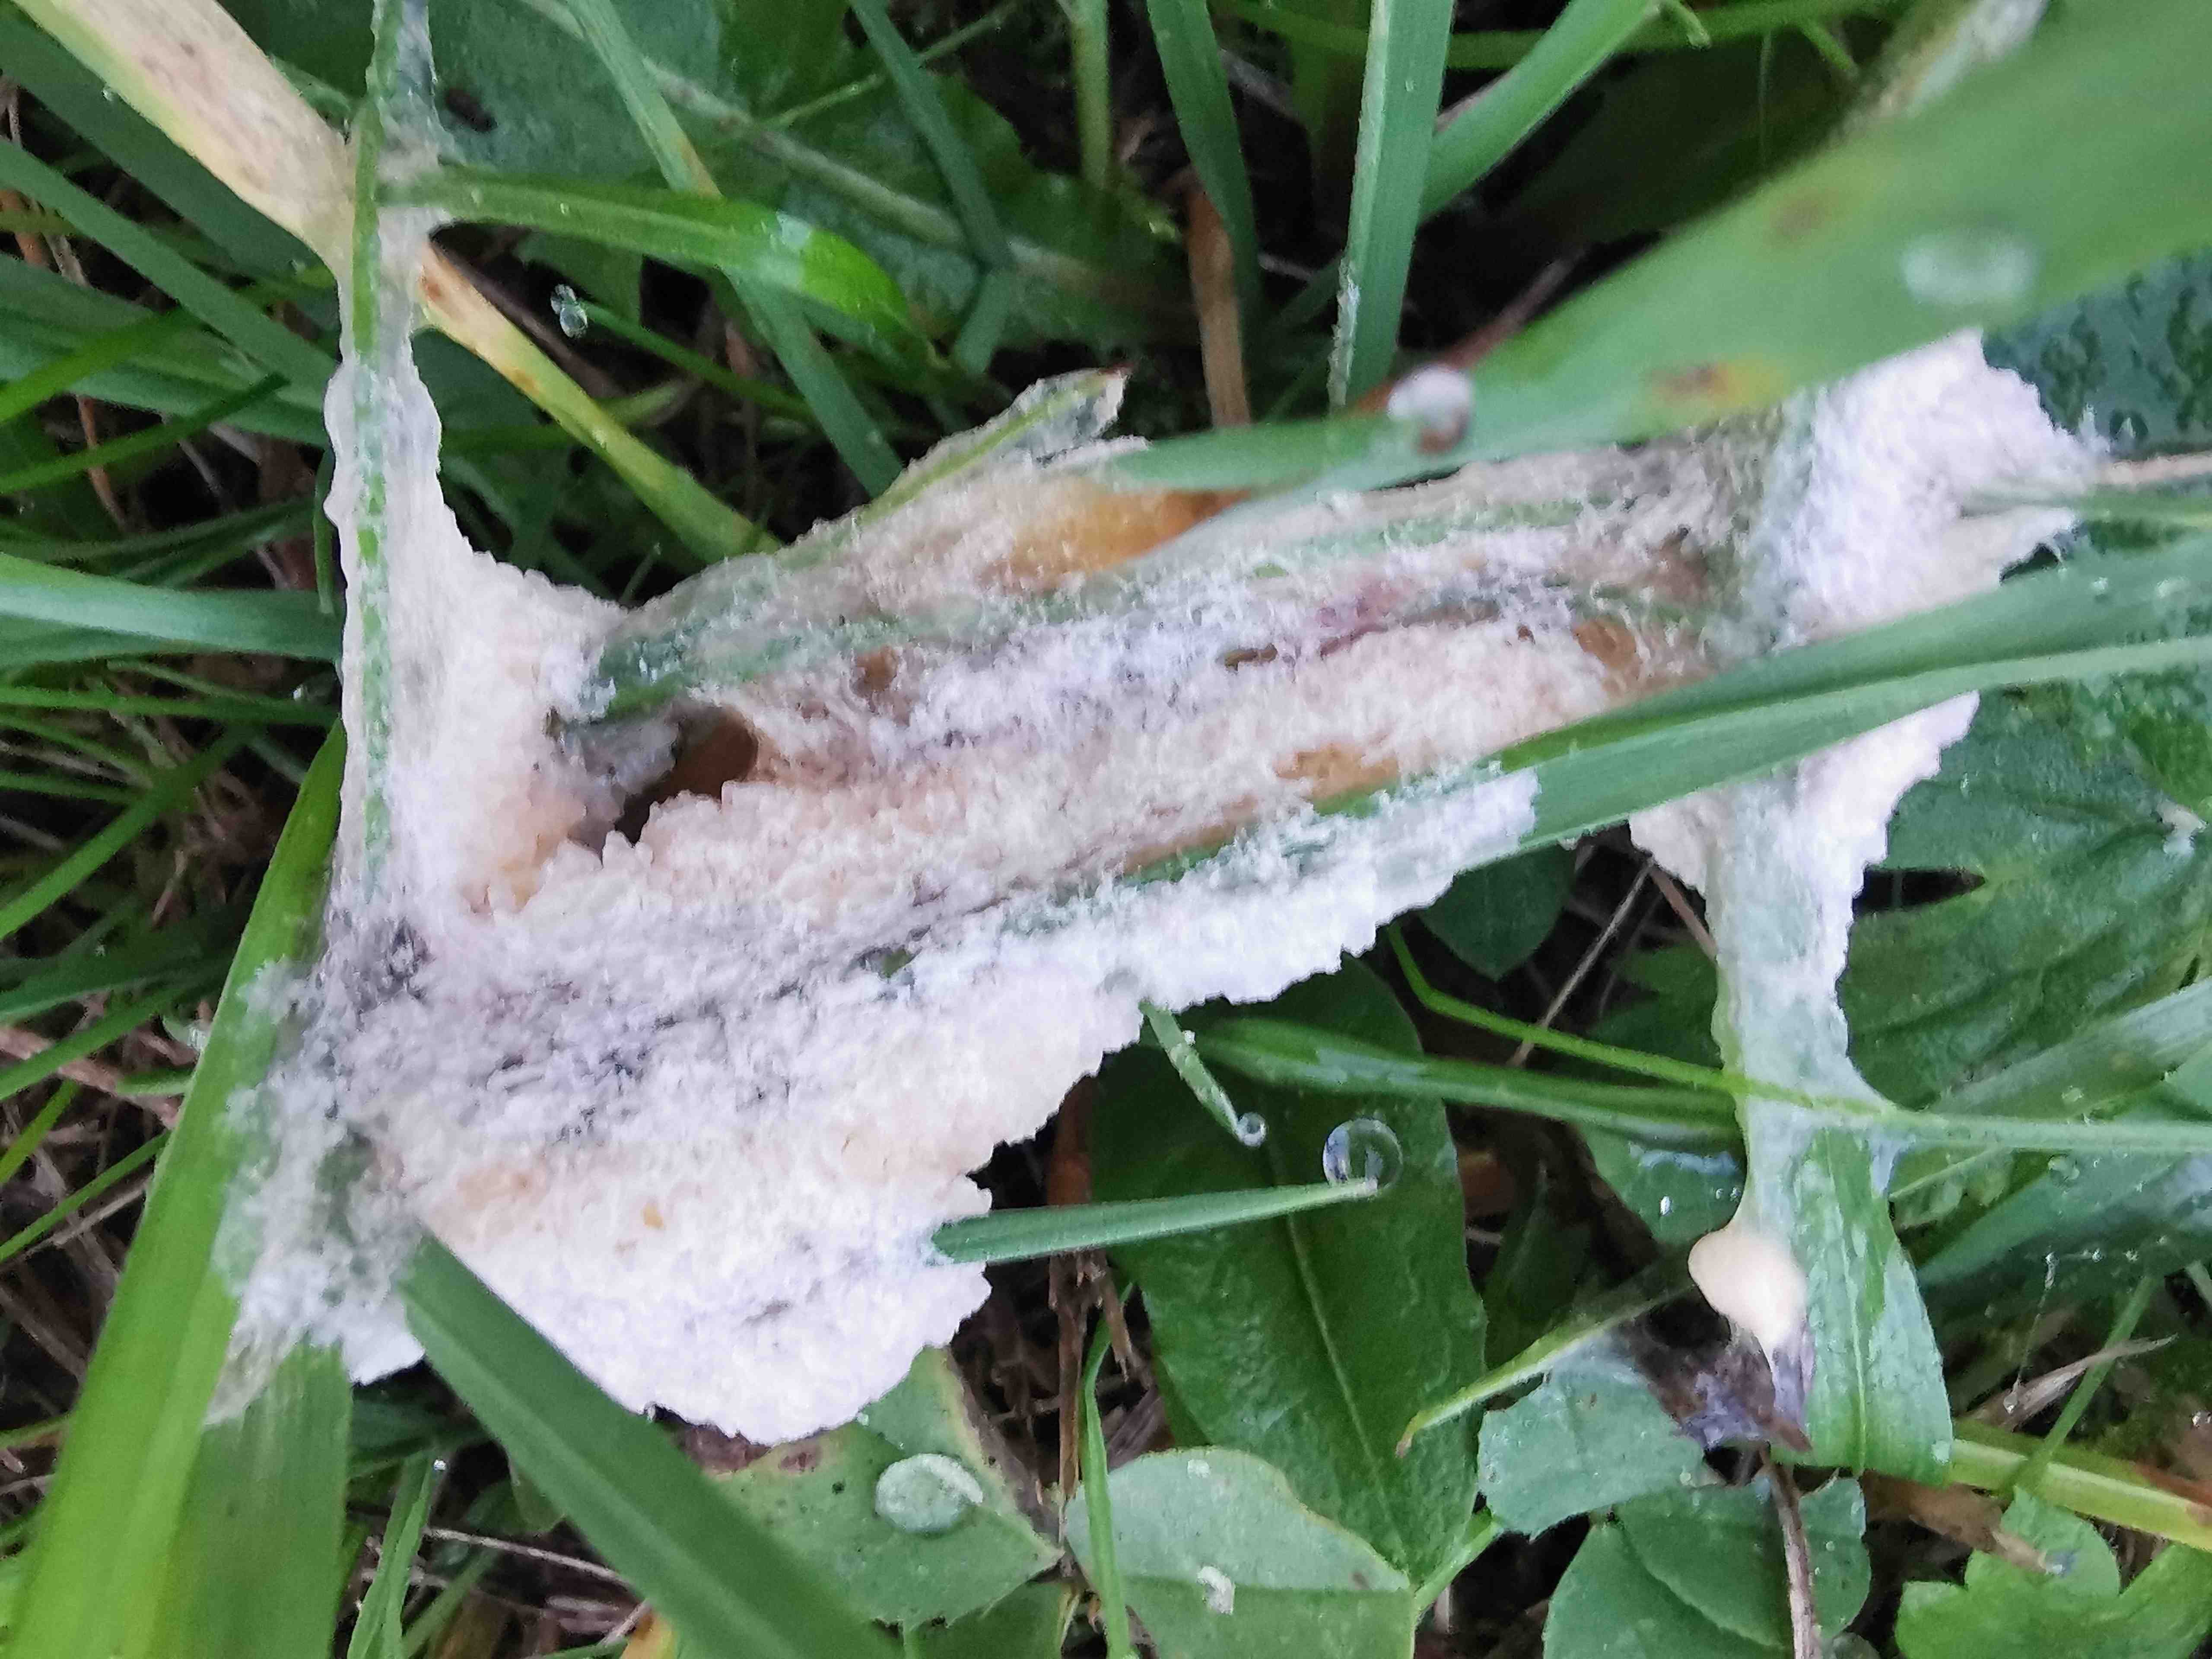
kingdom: Protozoa
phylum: Mycetozoa
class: Myxomycetes
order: Physarales
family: Physaraceae
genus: Didymium
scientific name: Didymium
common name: urteskum
